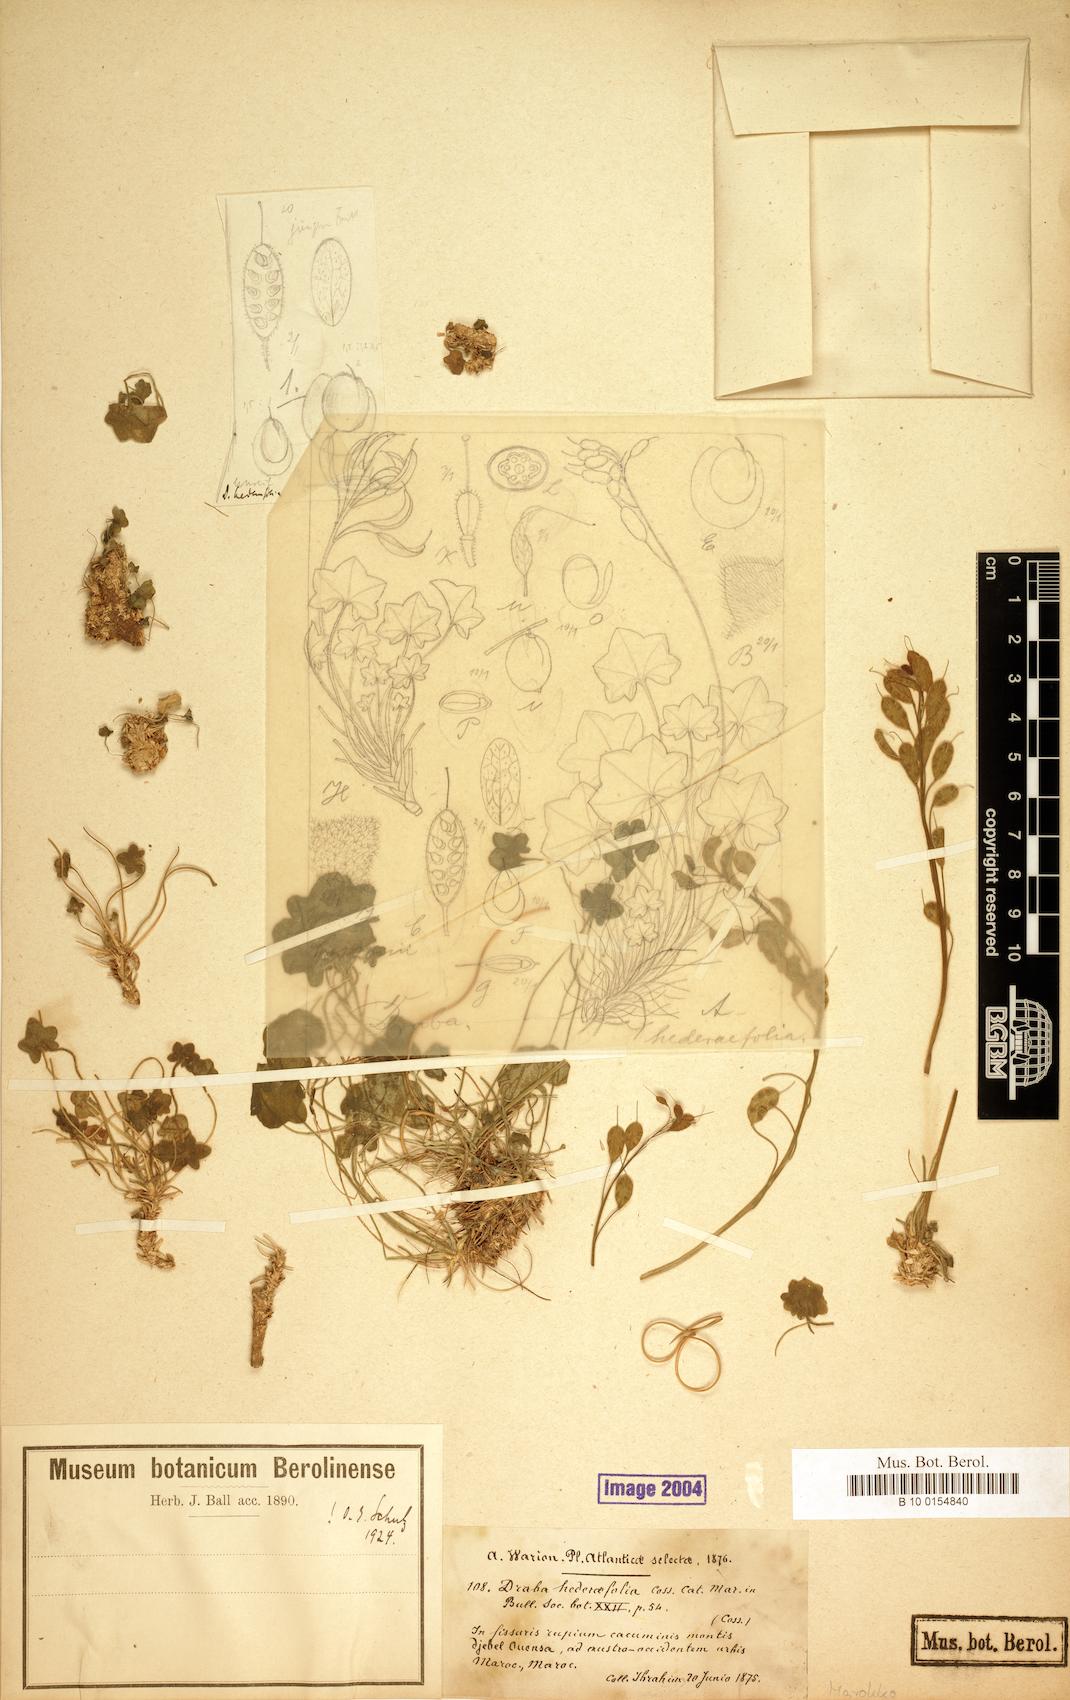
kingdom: Plantae
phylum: Tracheophyta
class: Magnoliopsida
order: Brassicales
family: Brassicaceae
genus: Draba
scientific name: Draba hederifolia
